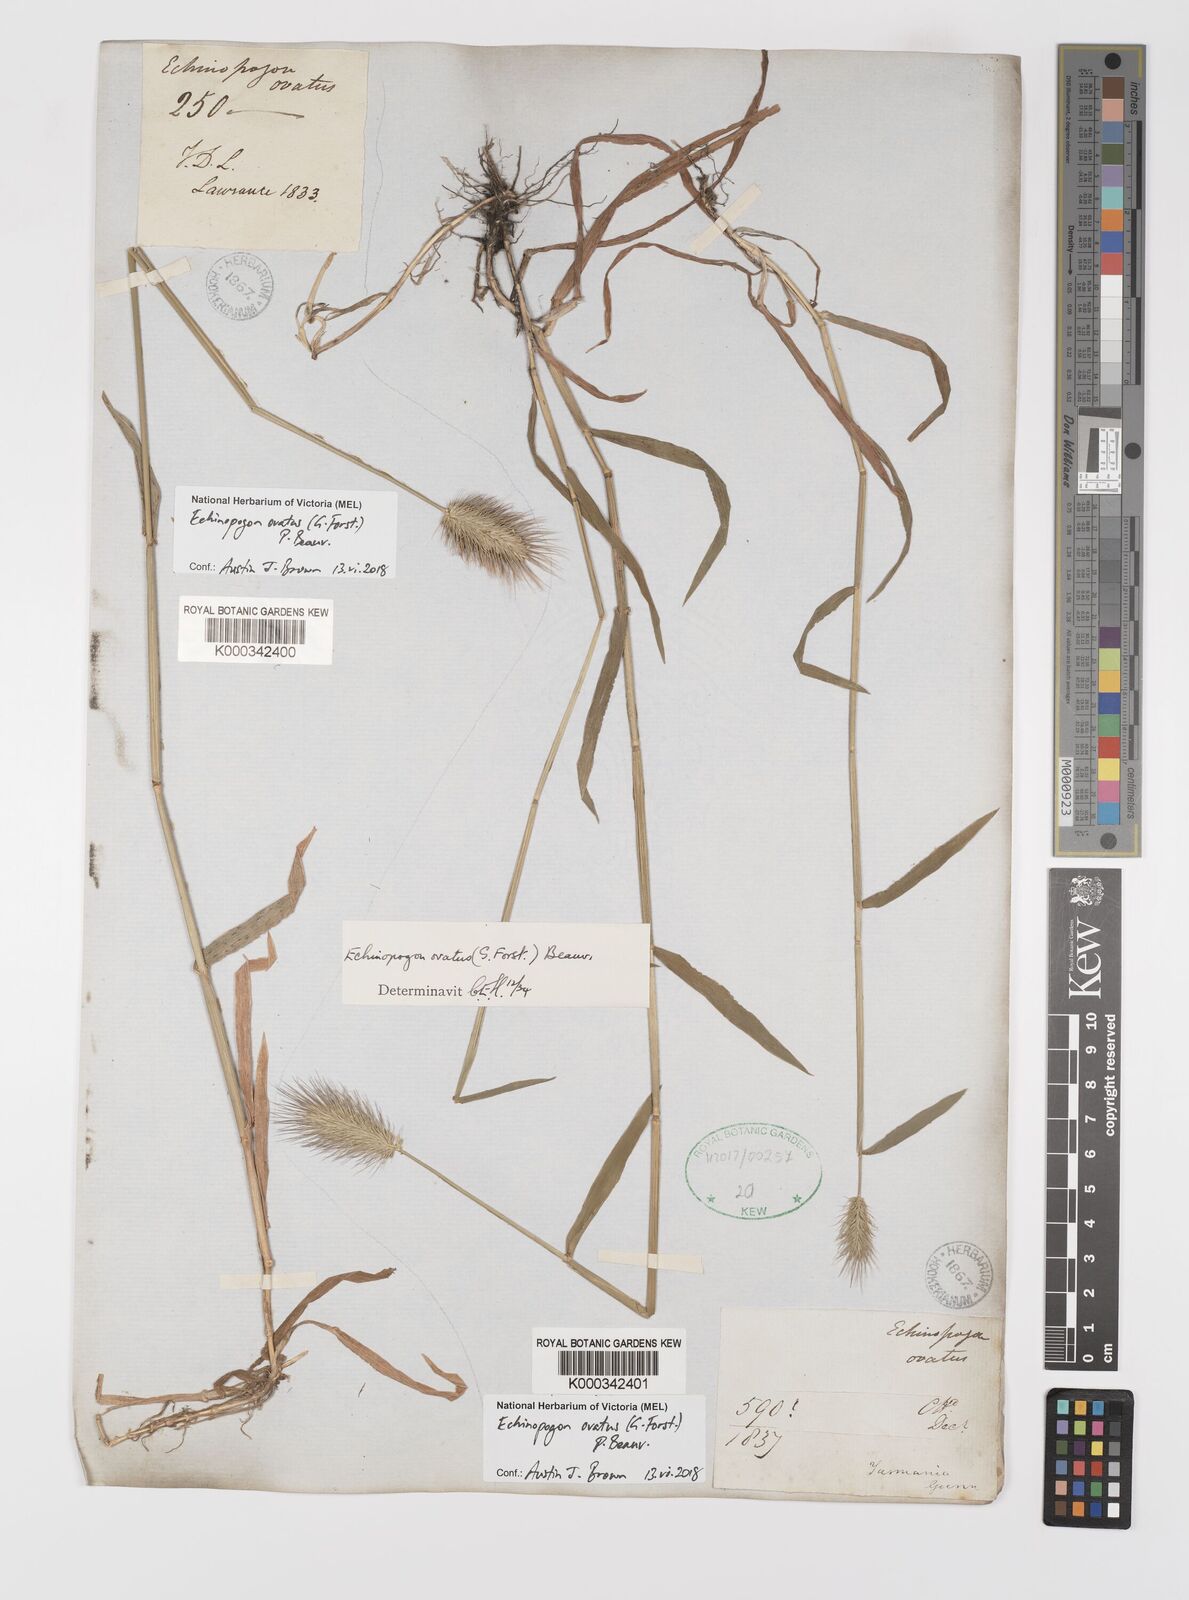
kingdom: Plantae
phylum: Tracheophyta
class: Liliopsida
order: Poales
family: Poaceae
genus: Echinopogon
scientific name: Echinopogon ovatus
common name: Hedgehog-grass
